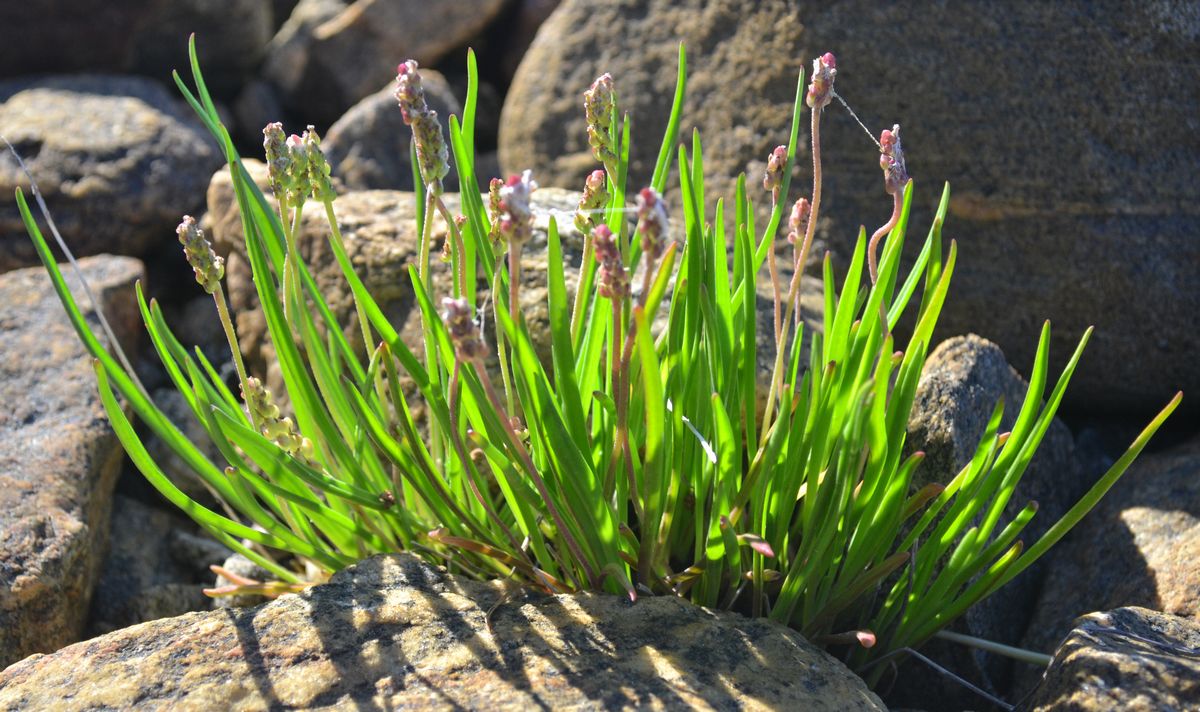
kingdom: Plantae
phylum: Tracheophyta
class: Magnoliopsida
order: Lamiales
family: Plantaginaceae
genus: Plantago
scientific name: Plantago maritima
